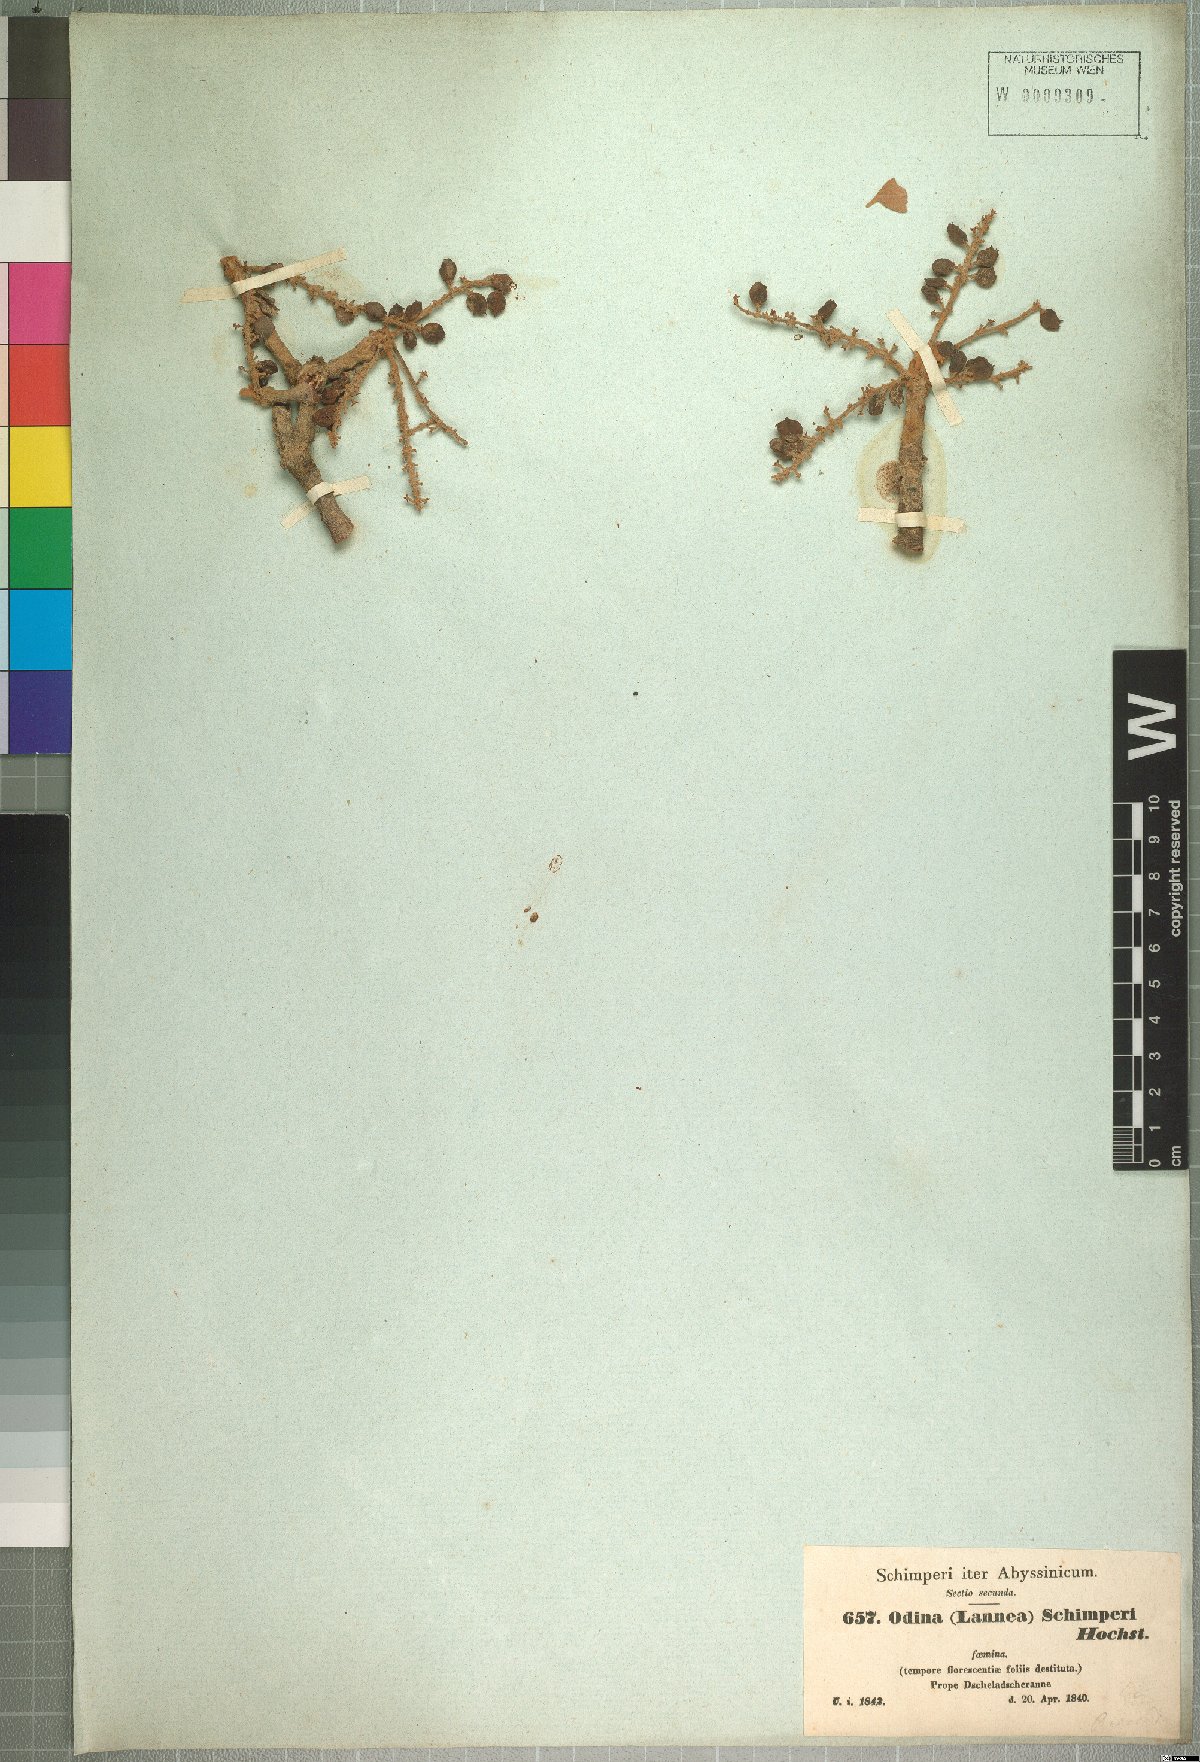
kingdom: Plantae
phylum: Tracheophyta
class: Magnoliopsida
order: Sapindales
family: Anacardiaceae
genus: Lannea
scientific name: Lannea schimperi
